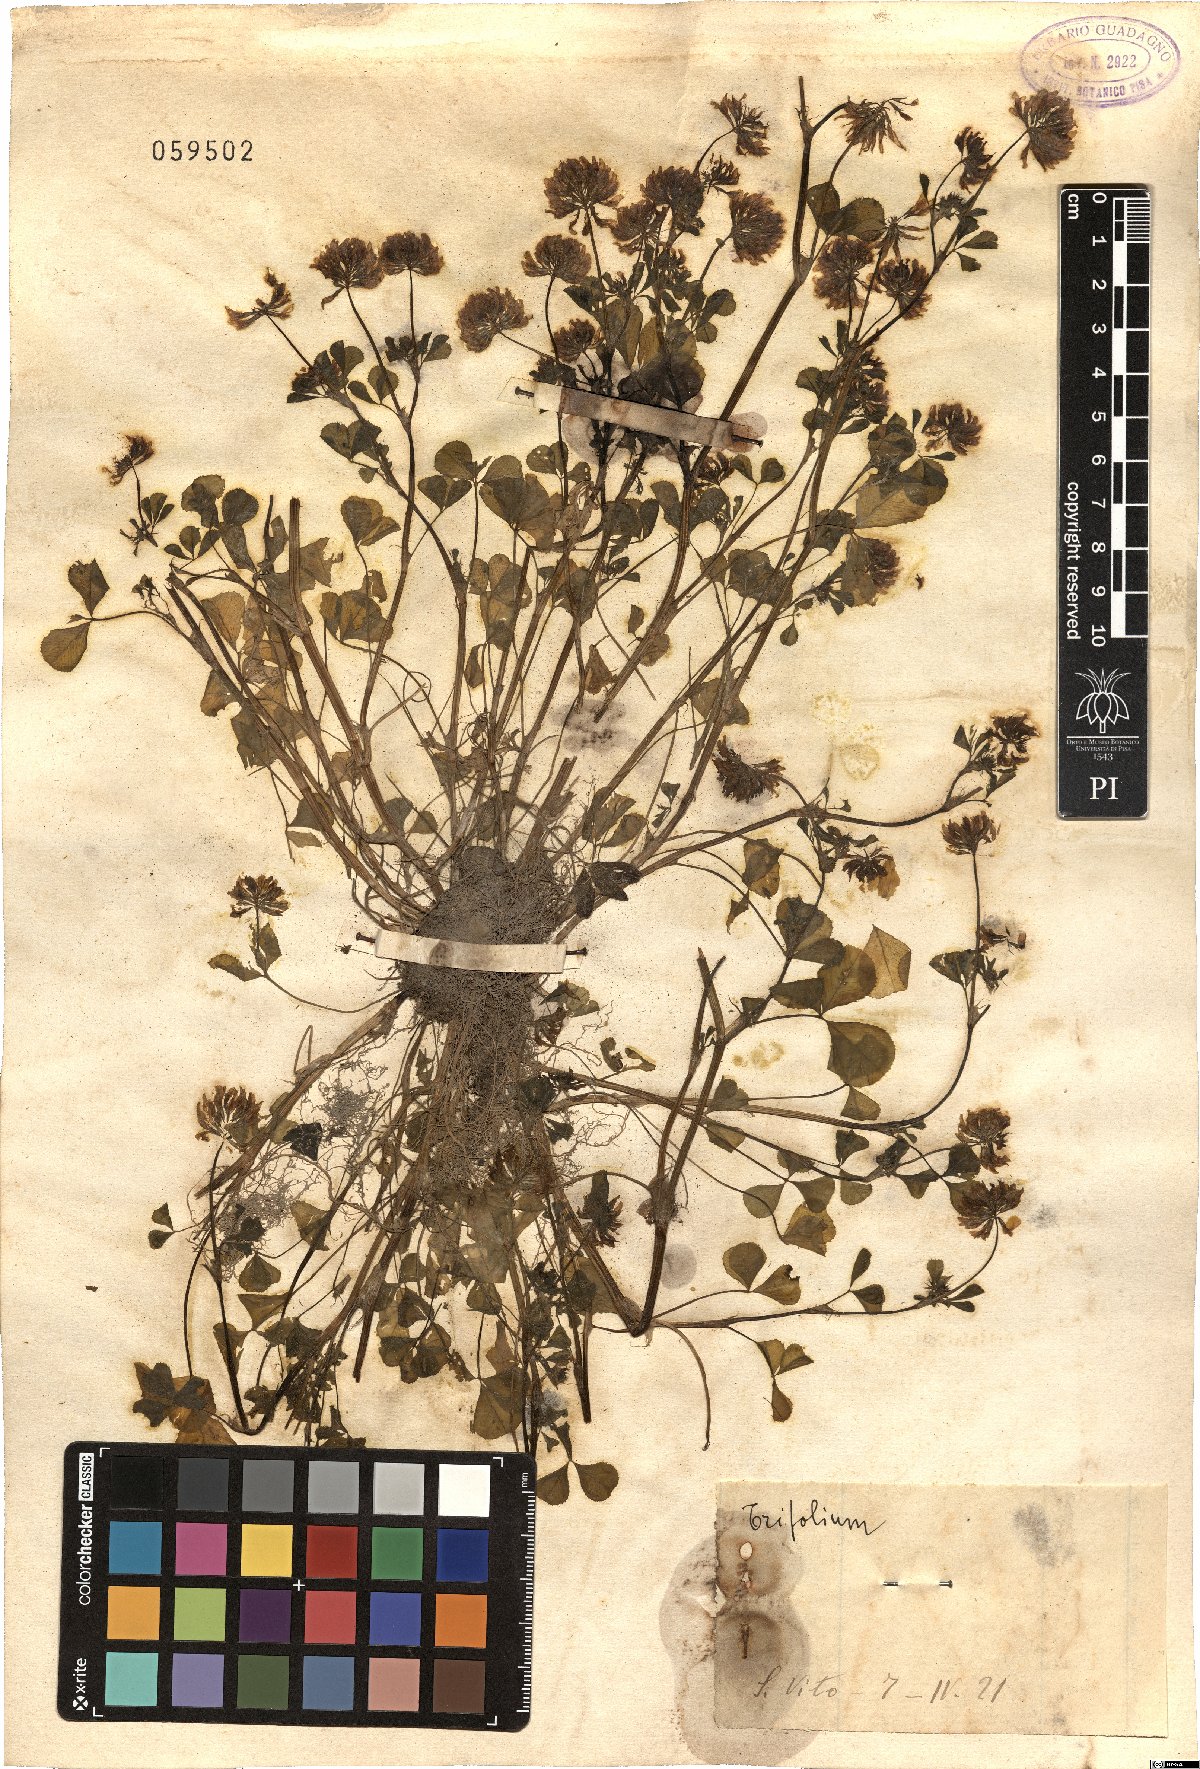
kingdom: Plantae
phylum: Tracheophyta
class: Magnoliopsida
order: Fabales
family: Fabaceae
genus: Trifolium
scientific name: Trifolium
